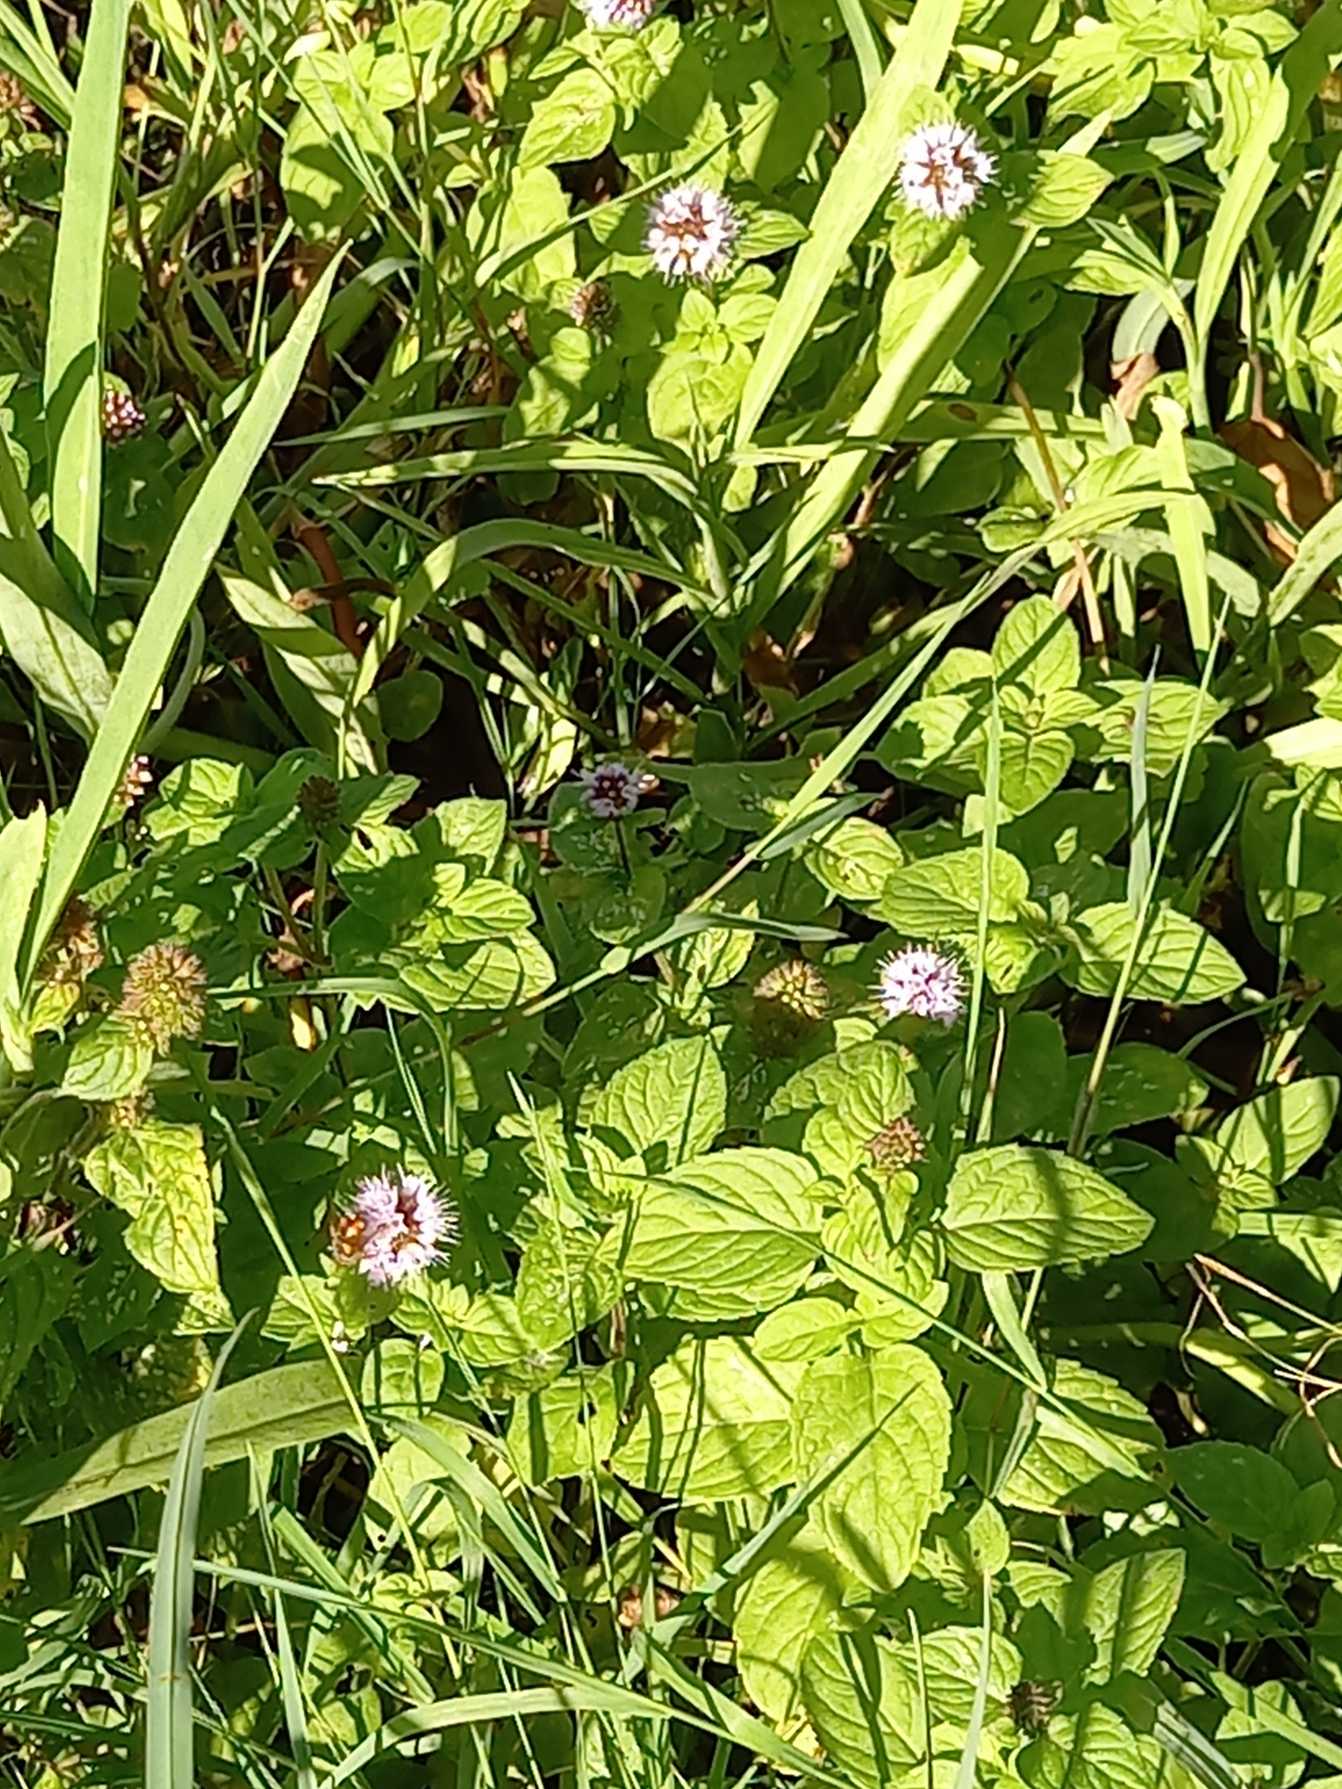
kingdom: Plantae
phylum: Tracheophyta
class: Magnoliopsida
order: Lamiales
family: Lamiaceae
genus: Mentha
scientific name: Mentha aquatica
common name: Vand-mynte
